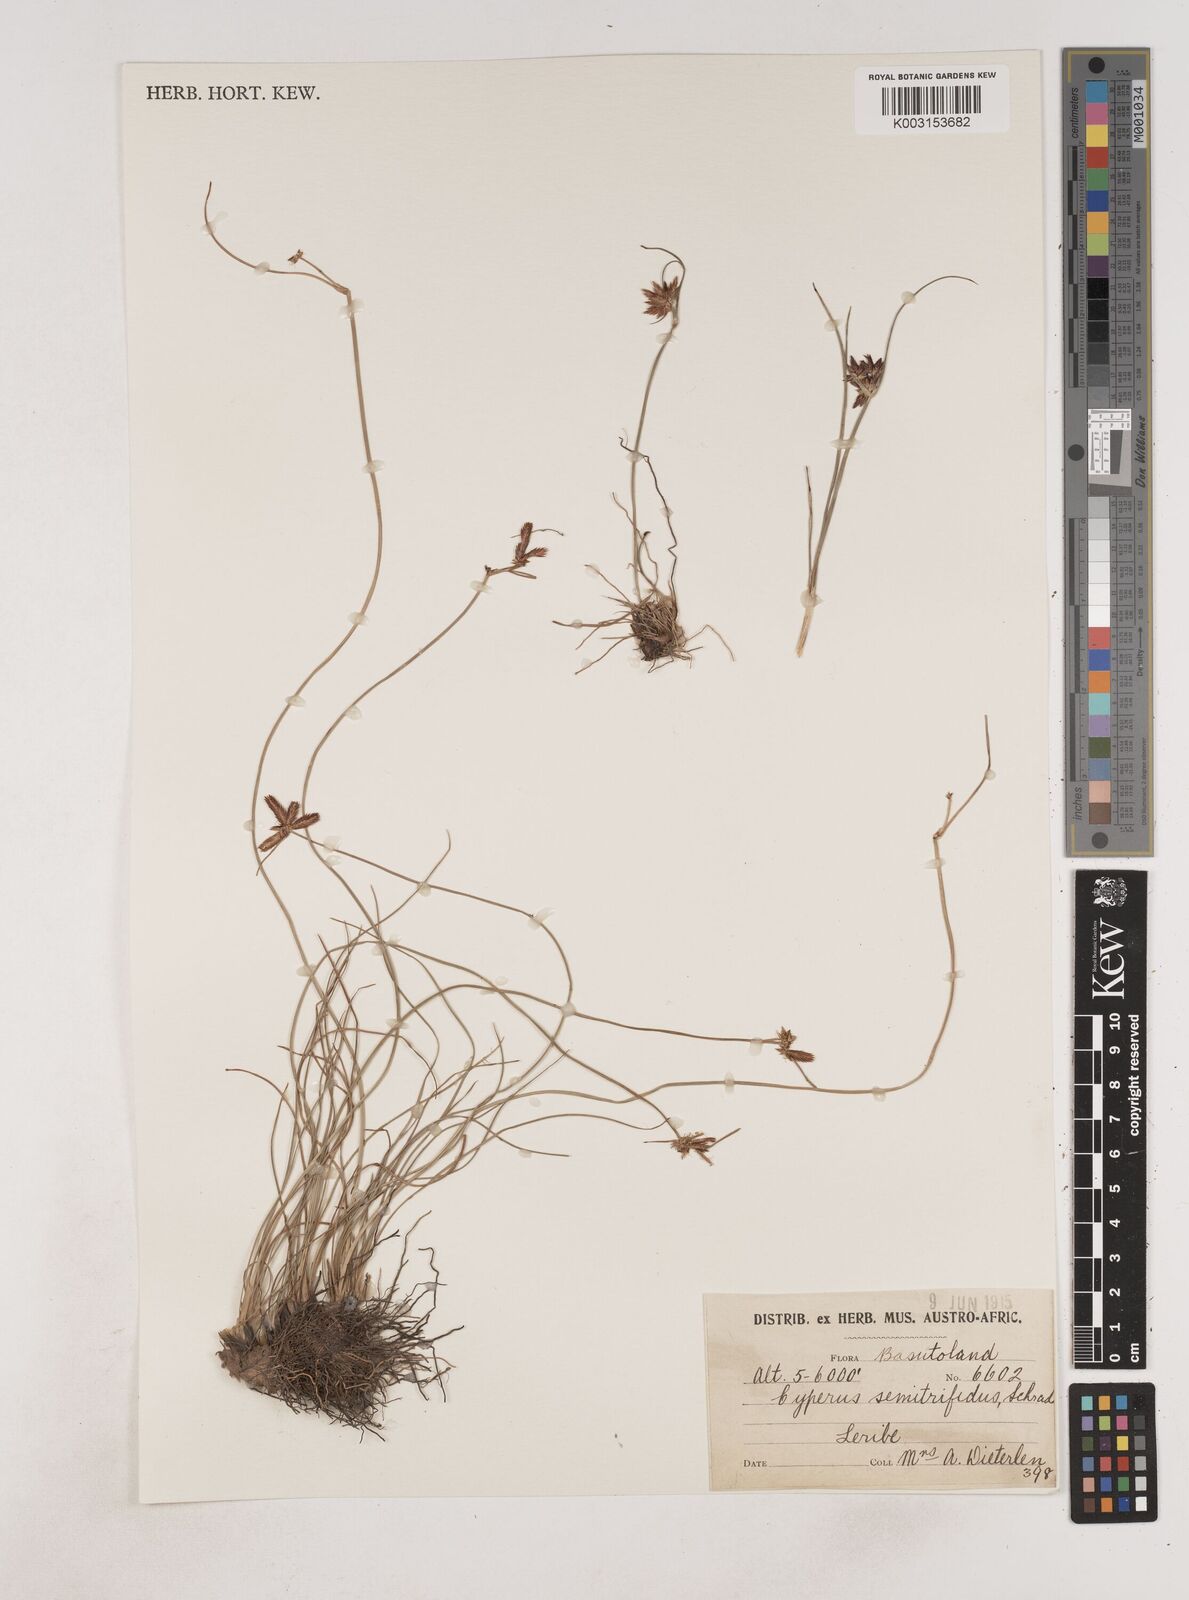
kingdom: Plantae
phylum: Tracheophyta
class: Liliopsida
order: Poales
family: Cyperaceae
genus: Cyperus
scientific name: Cyperus semitrifidus
